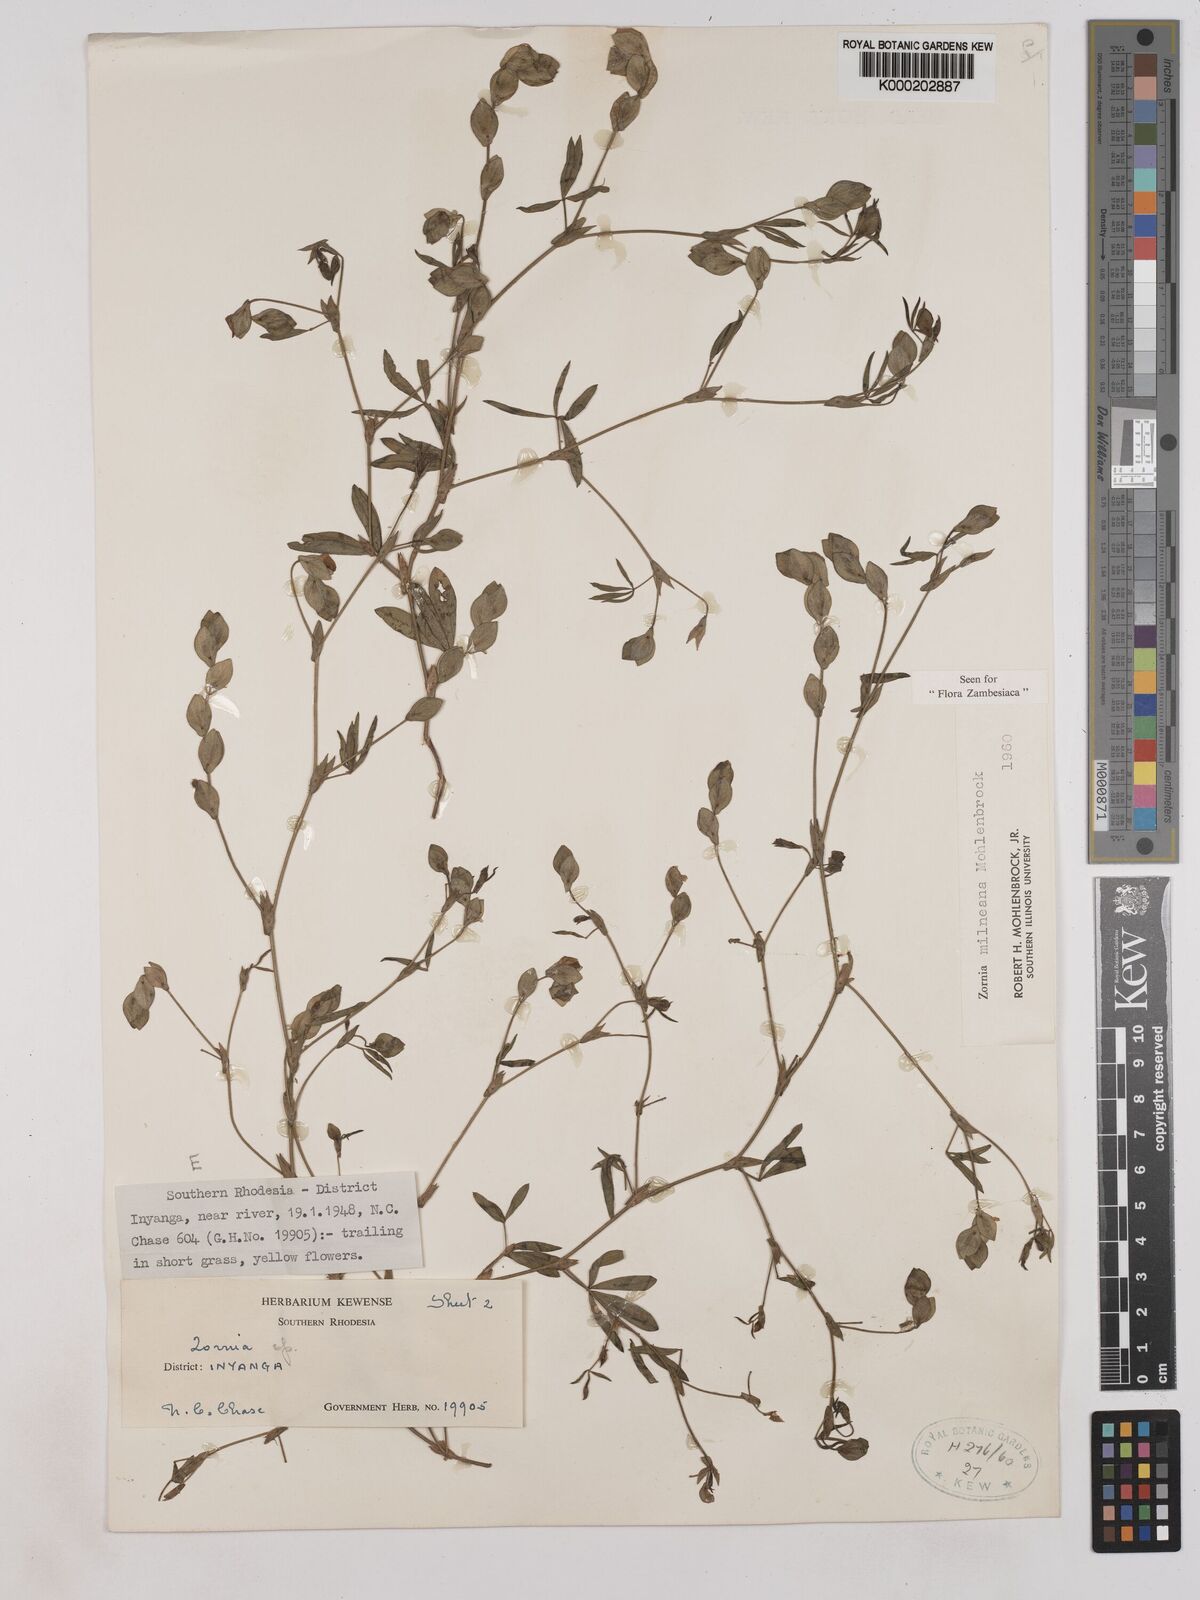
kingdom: Plantae
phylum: Tracheophyta
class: Magnoliopsida
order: Fabales
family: Fabaceae
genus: Zornia
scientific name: Zornia milneana
